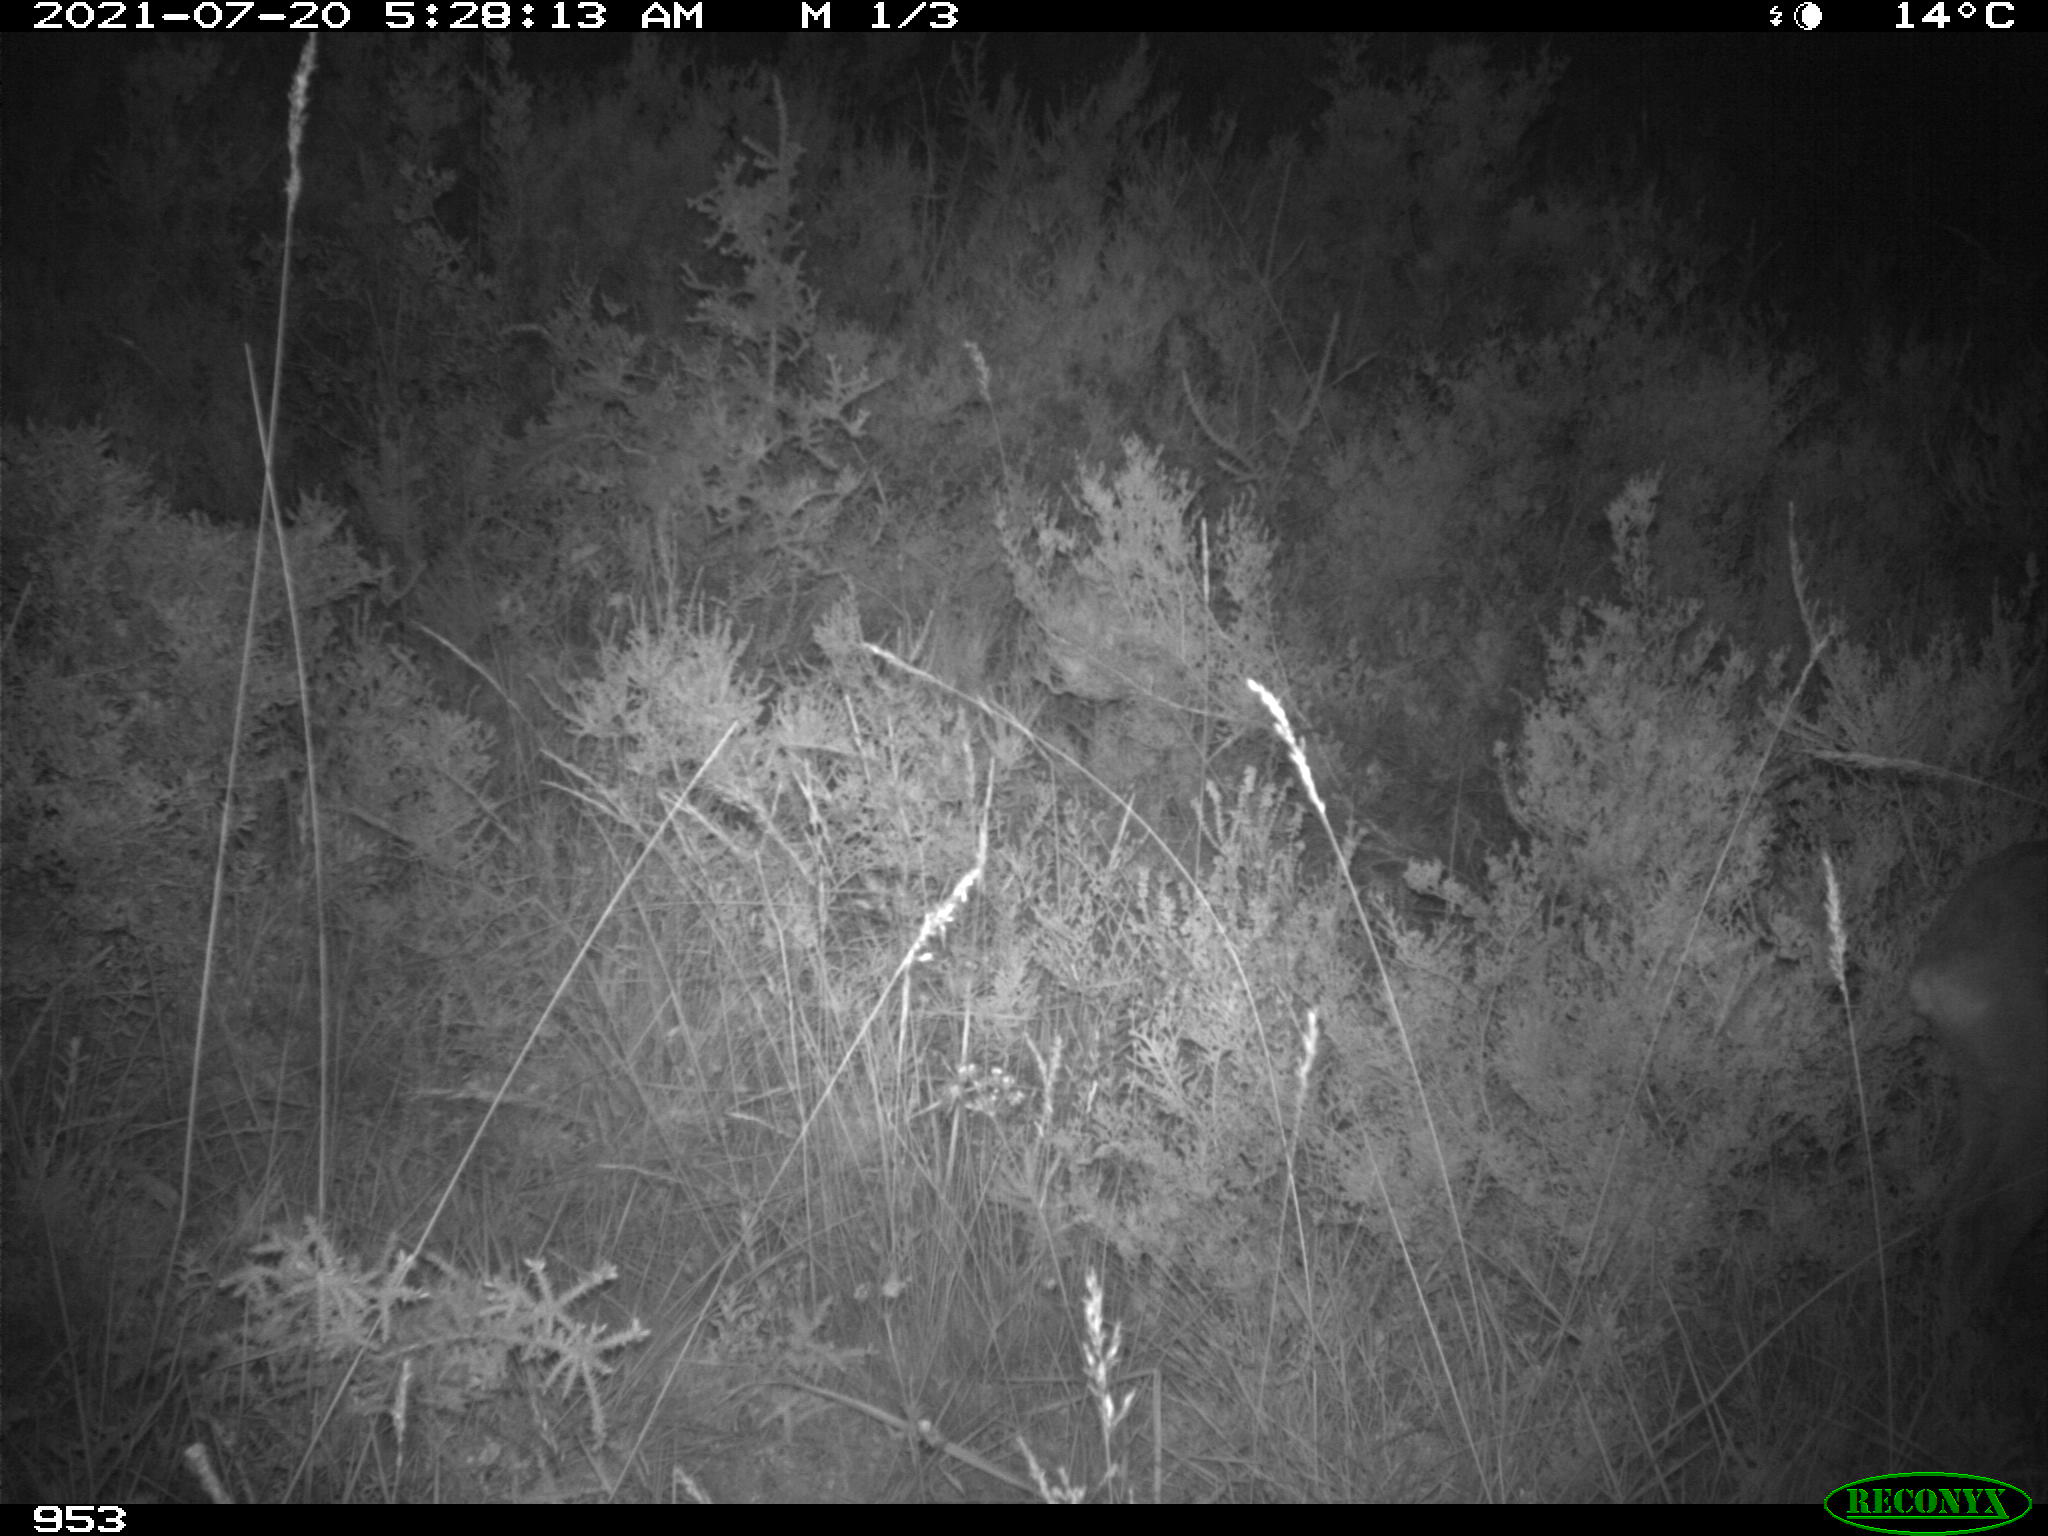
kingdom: Animalia
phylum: Chordata
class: Mammalia
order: Artiodactyla
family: Cervidae
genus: Capreolus
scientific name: Capreolus capreolus
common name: Western roe deer
